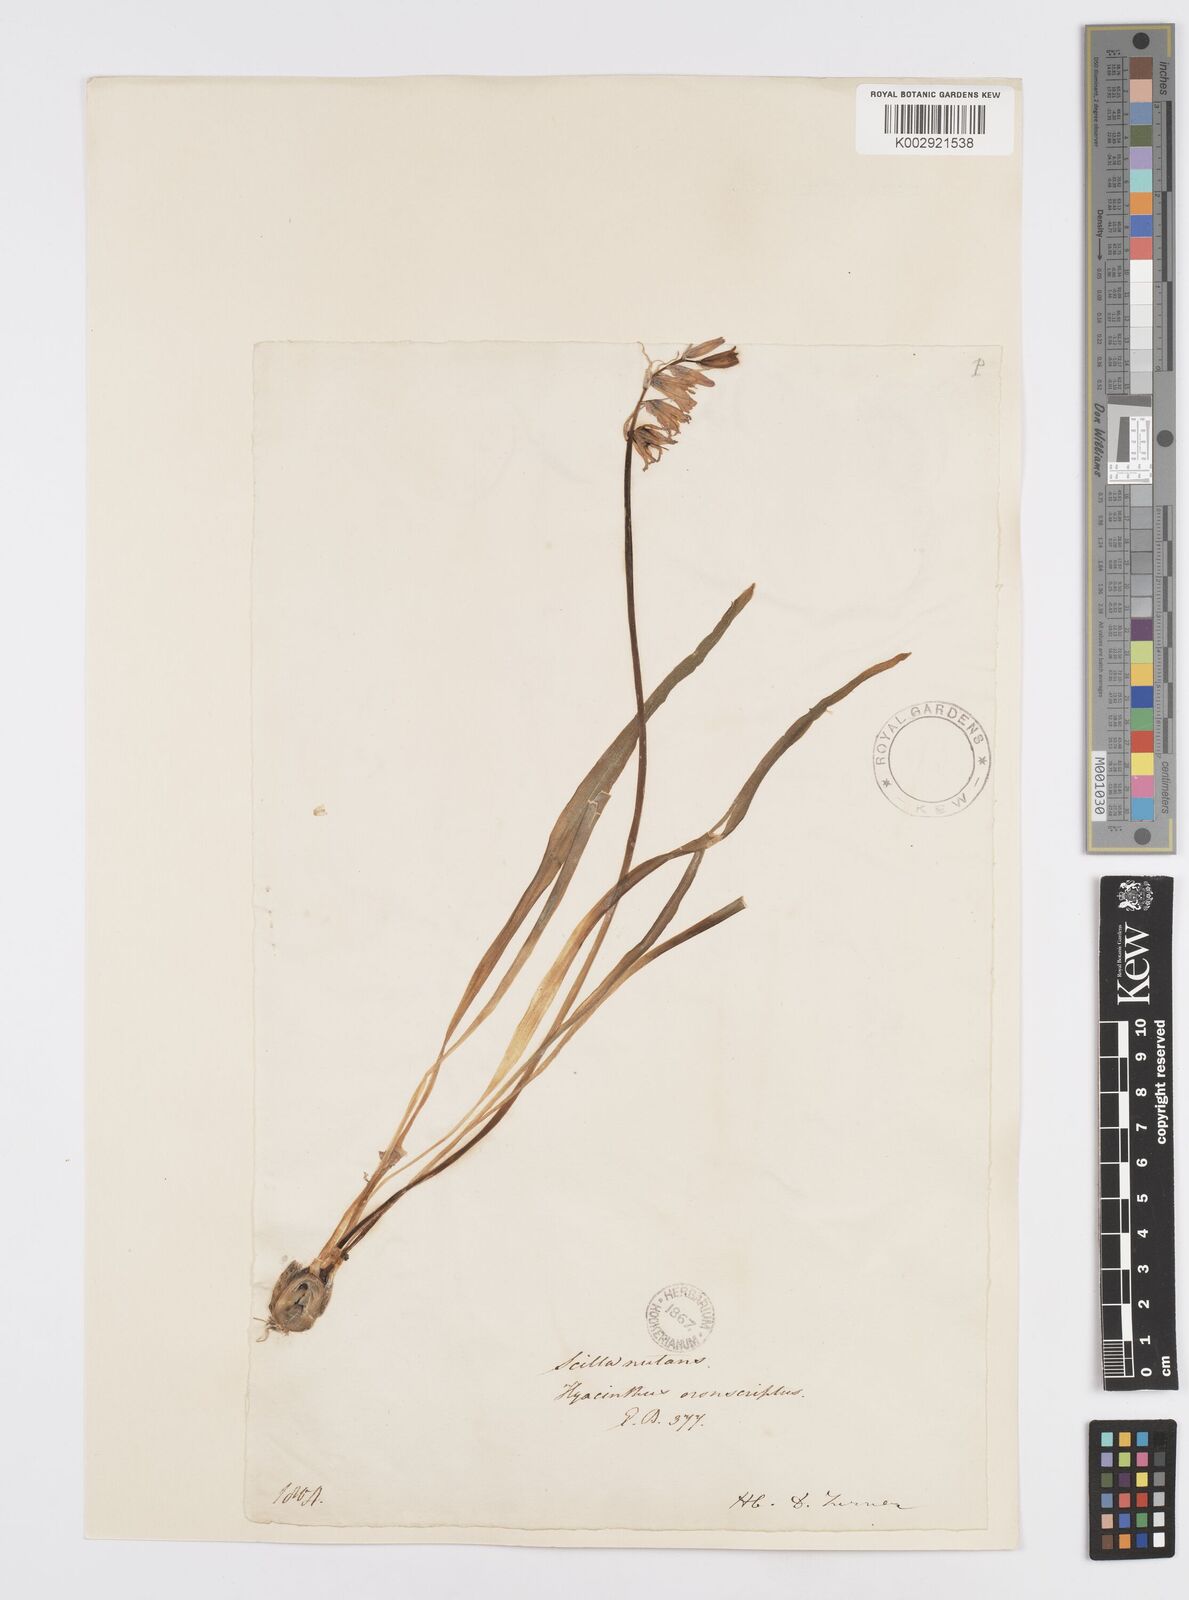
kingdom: Plantae
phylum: Tracheophyta
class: Liliopsida
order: Asparagales
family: Asparagaceae
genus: Hyacinthoides
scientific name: Hyacinthoides non-scripta
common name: Bluebell
